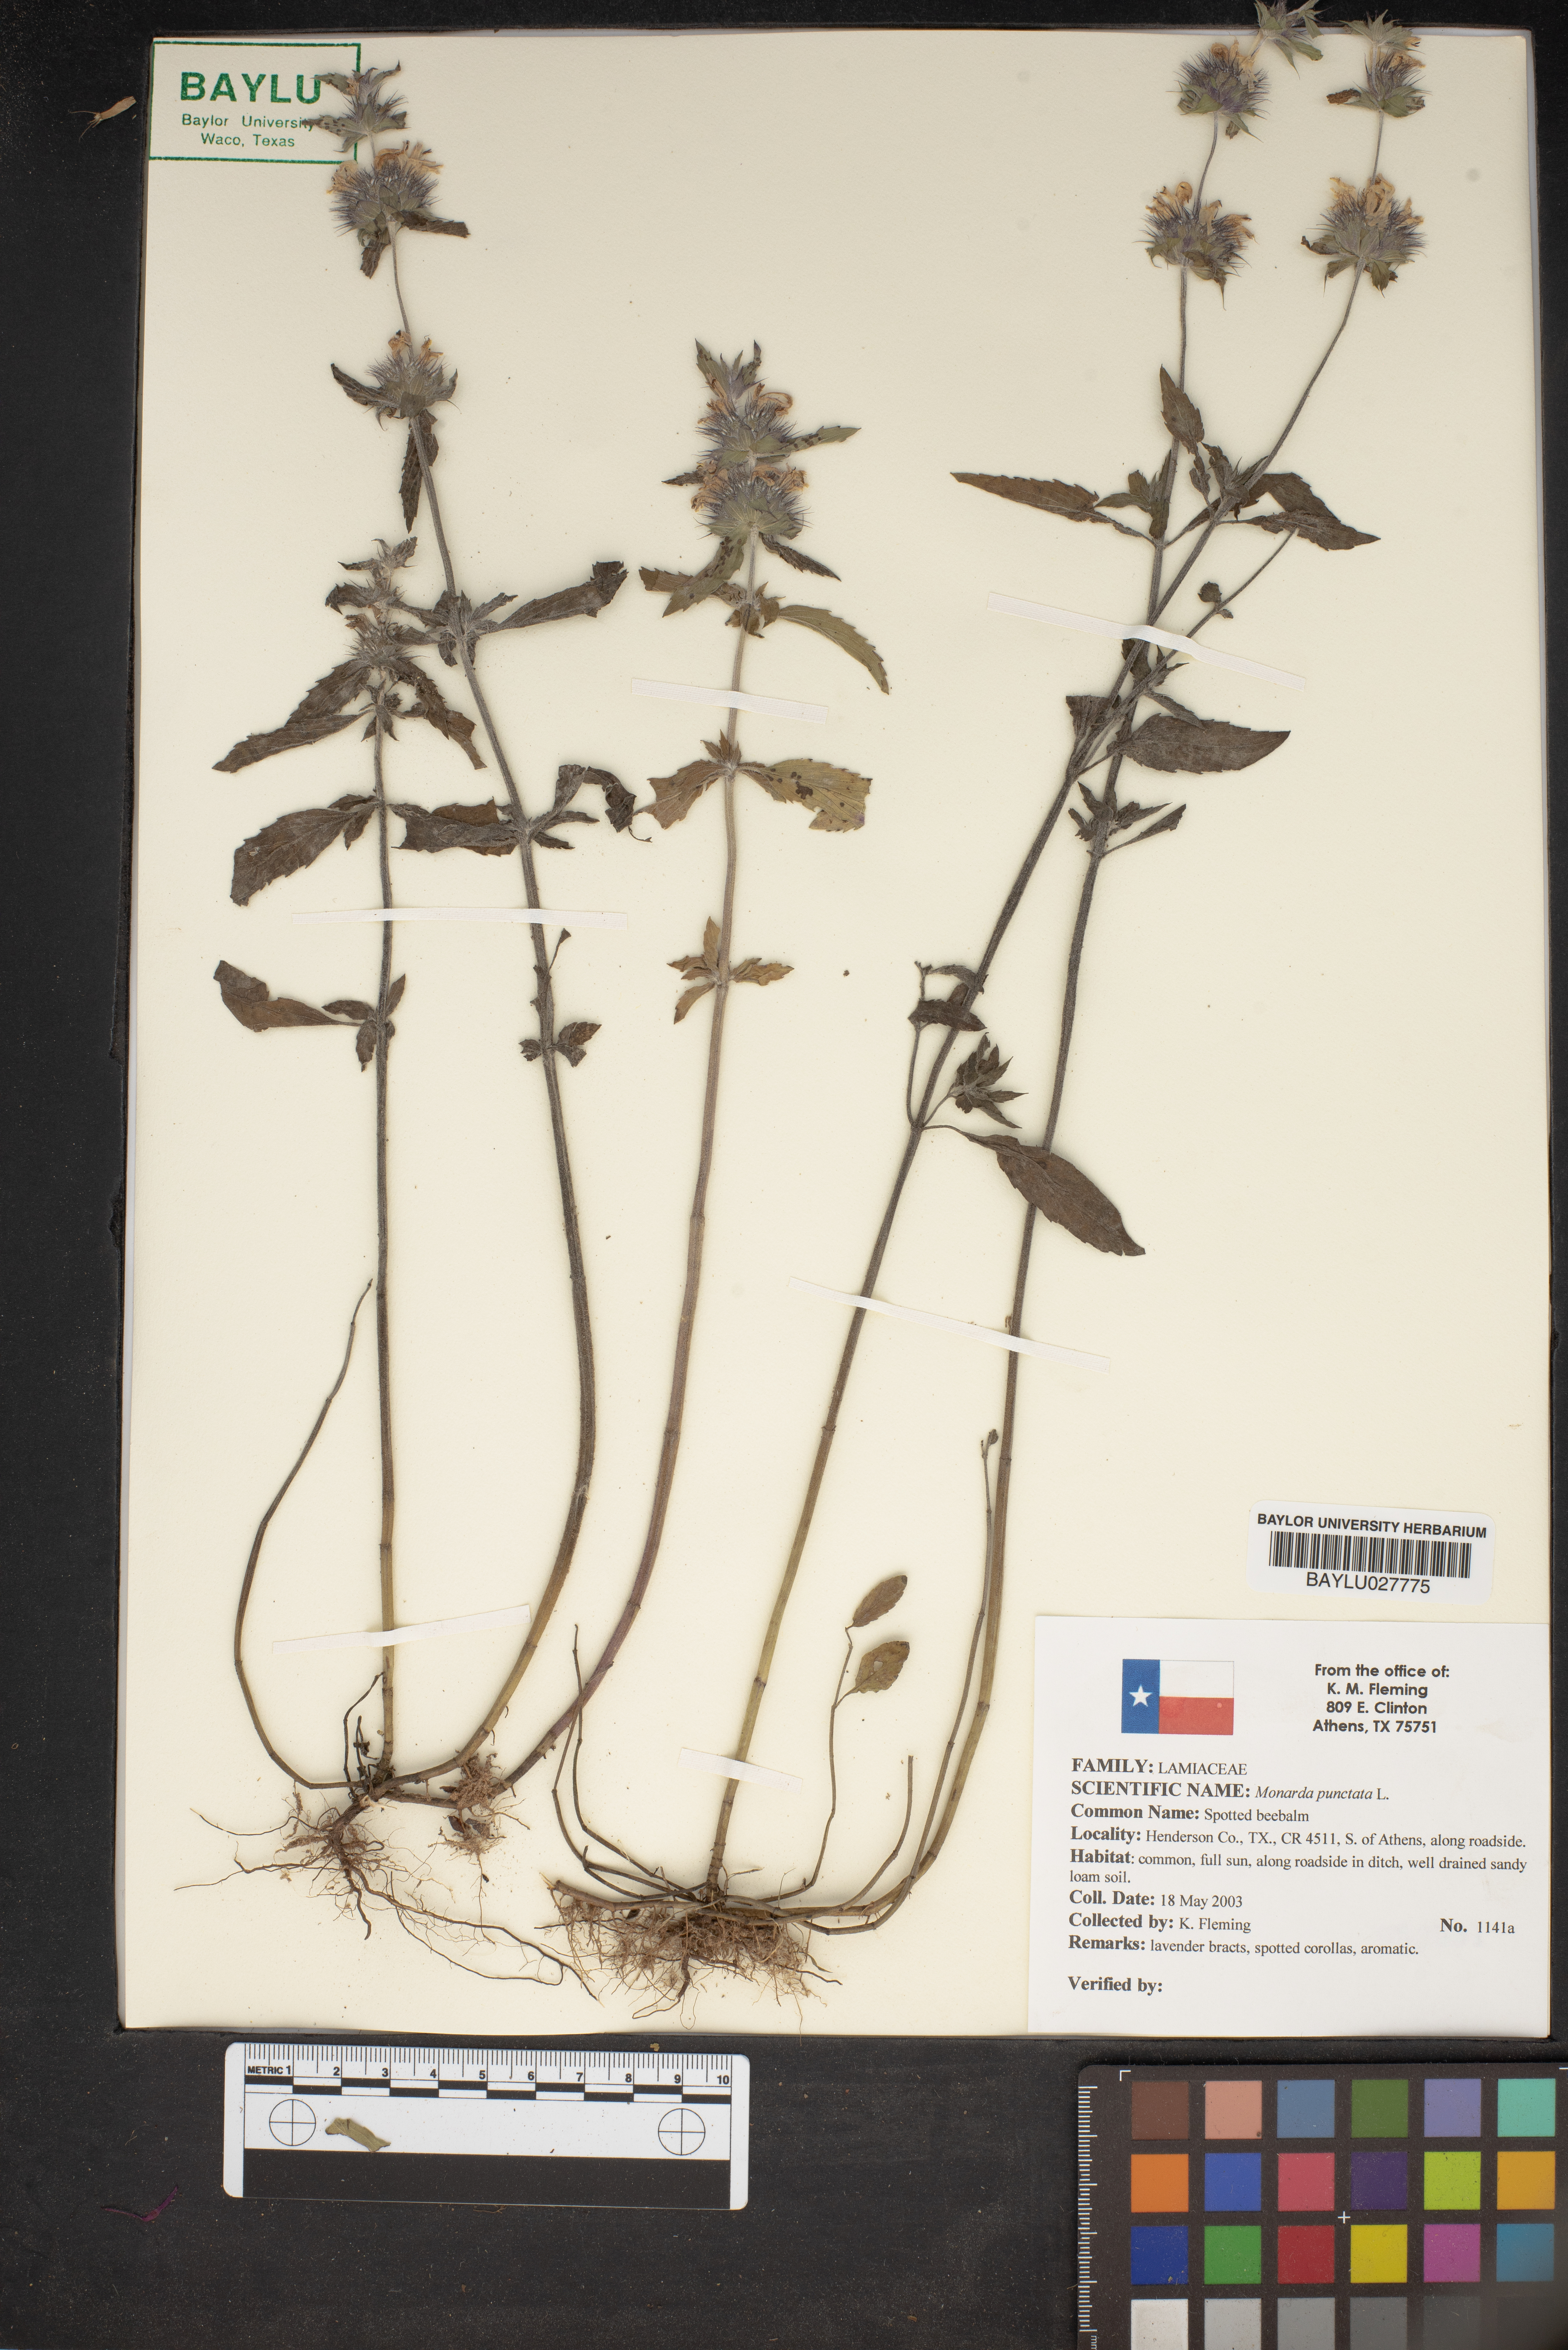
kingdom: Plantae
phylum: Tracheophyta
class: Magnoliopsida
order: Lamiales
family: Lamiaceae
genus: Monarda
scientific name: Monarda punctata
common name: Dotted monarda
